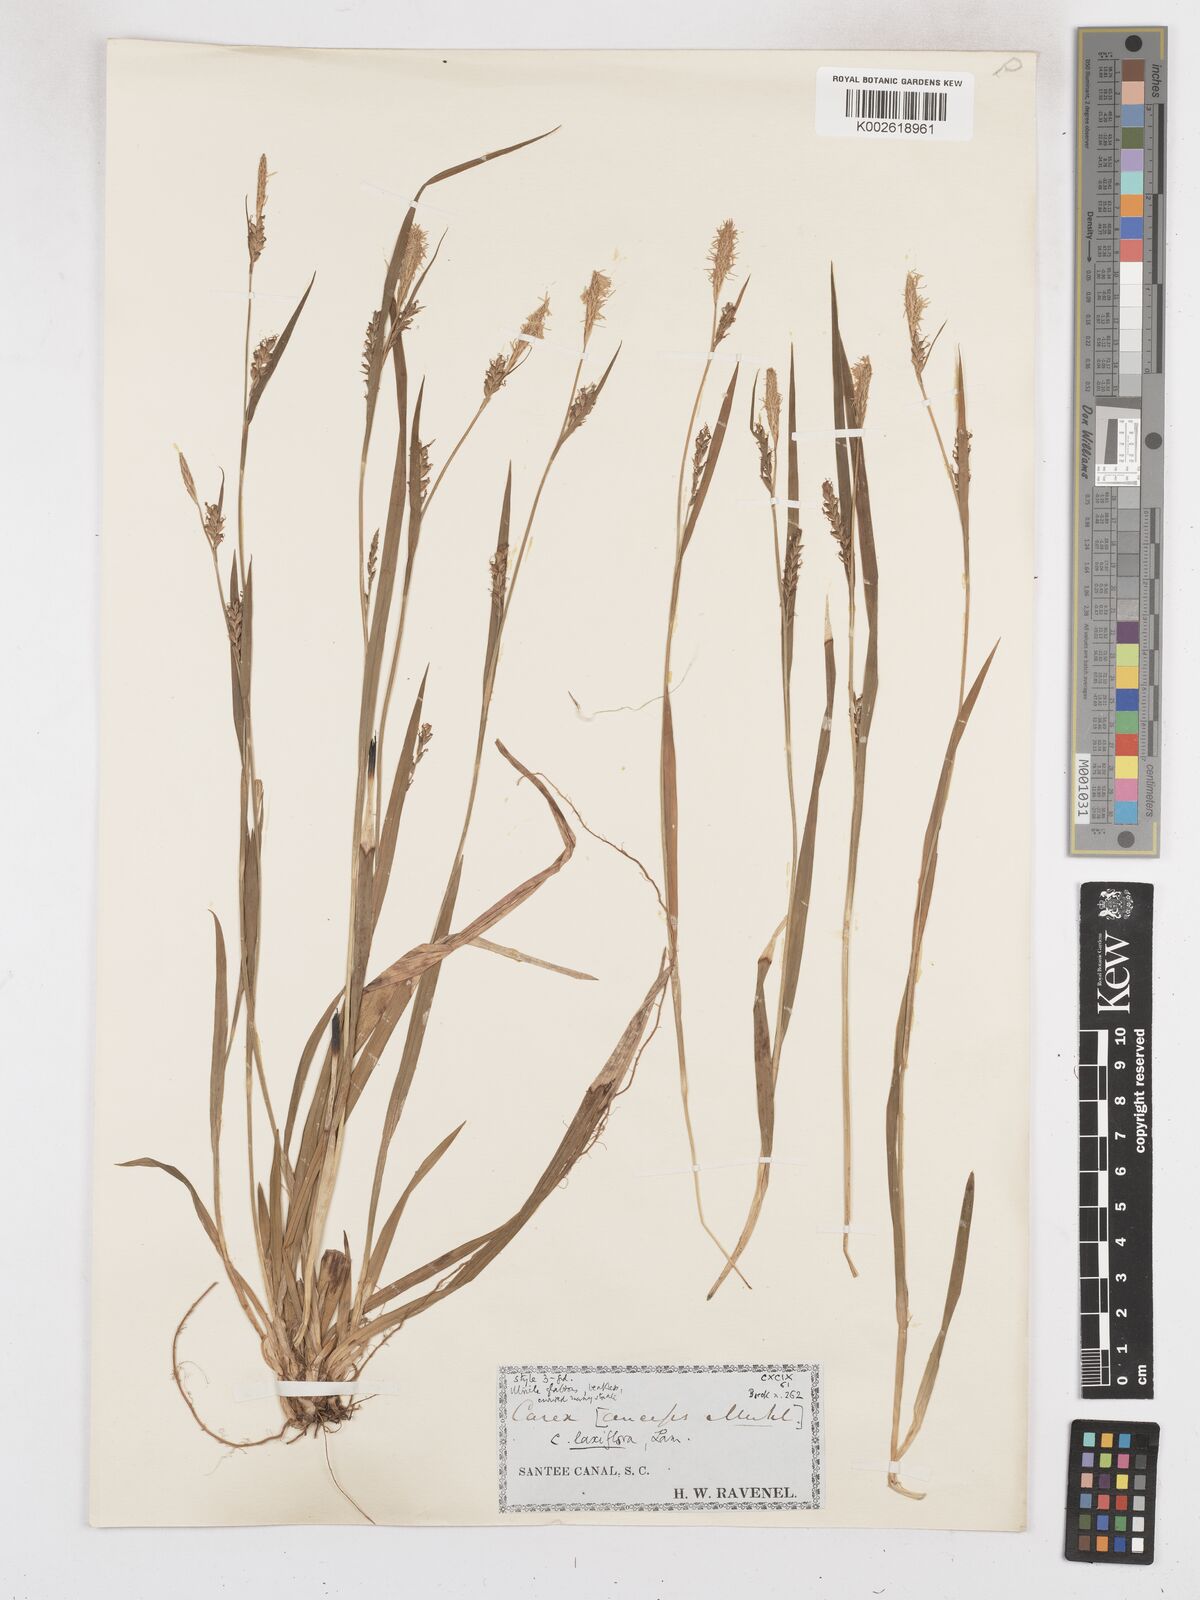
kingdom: Plantae
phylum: Tracheophyta
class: Liliopsida
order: Poales
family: Cyperaceae
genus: Carex
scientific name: Carex laxiflora
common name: Beech wood sedge
